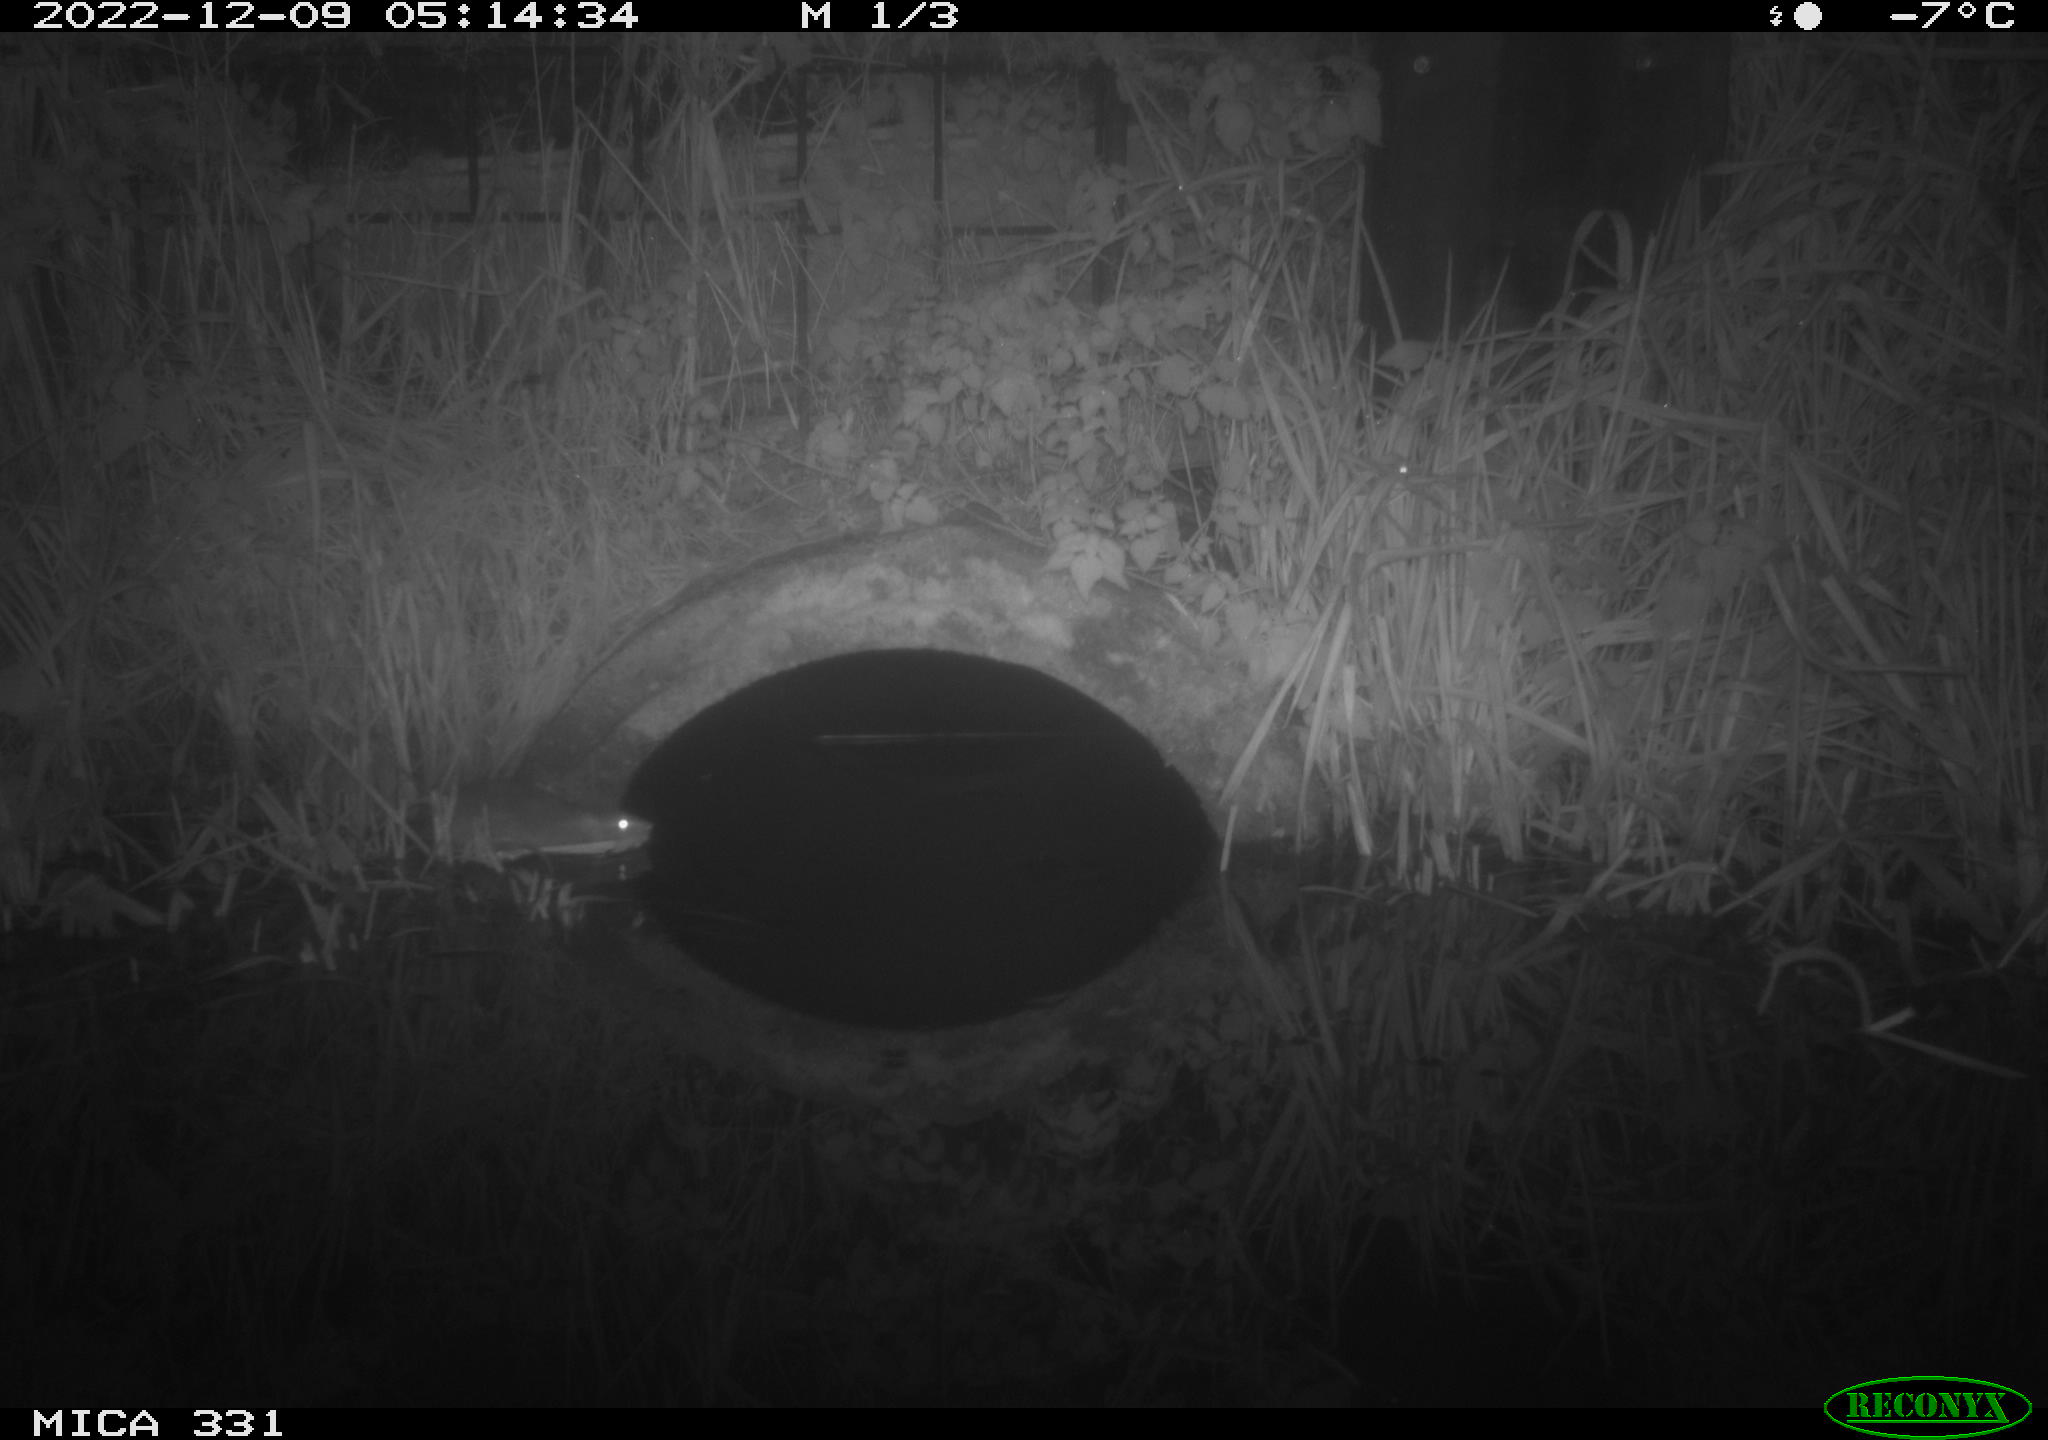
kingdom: Animalia
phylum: Chordata
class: Mammalia
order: Rodentia
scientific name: Rodentia
